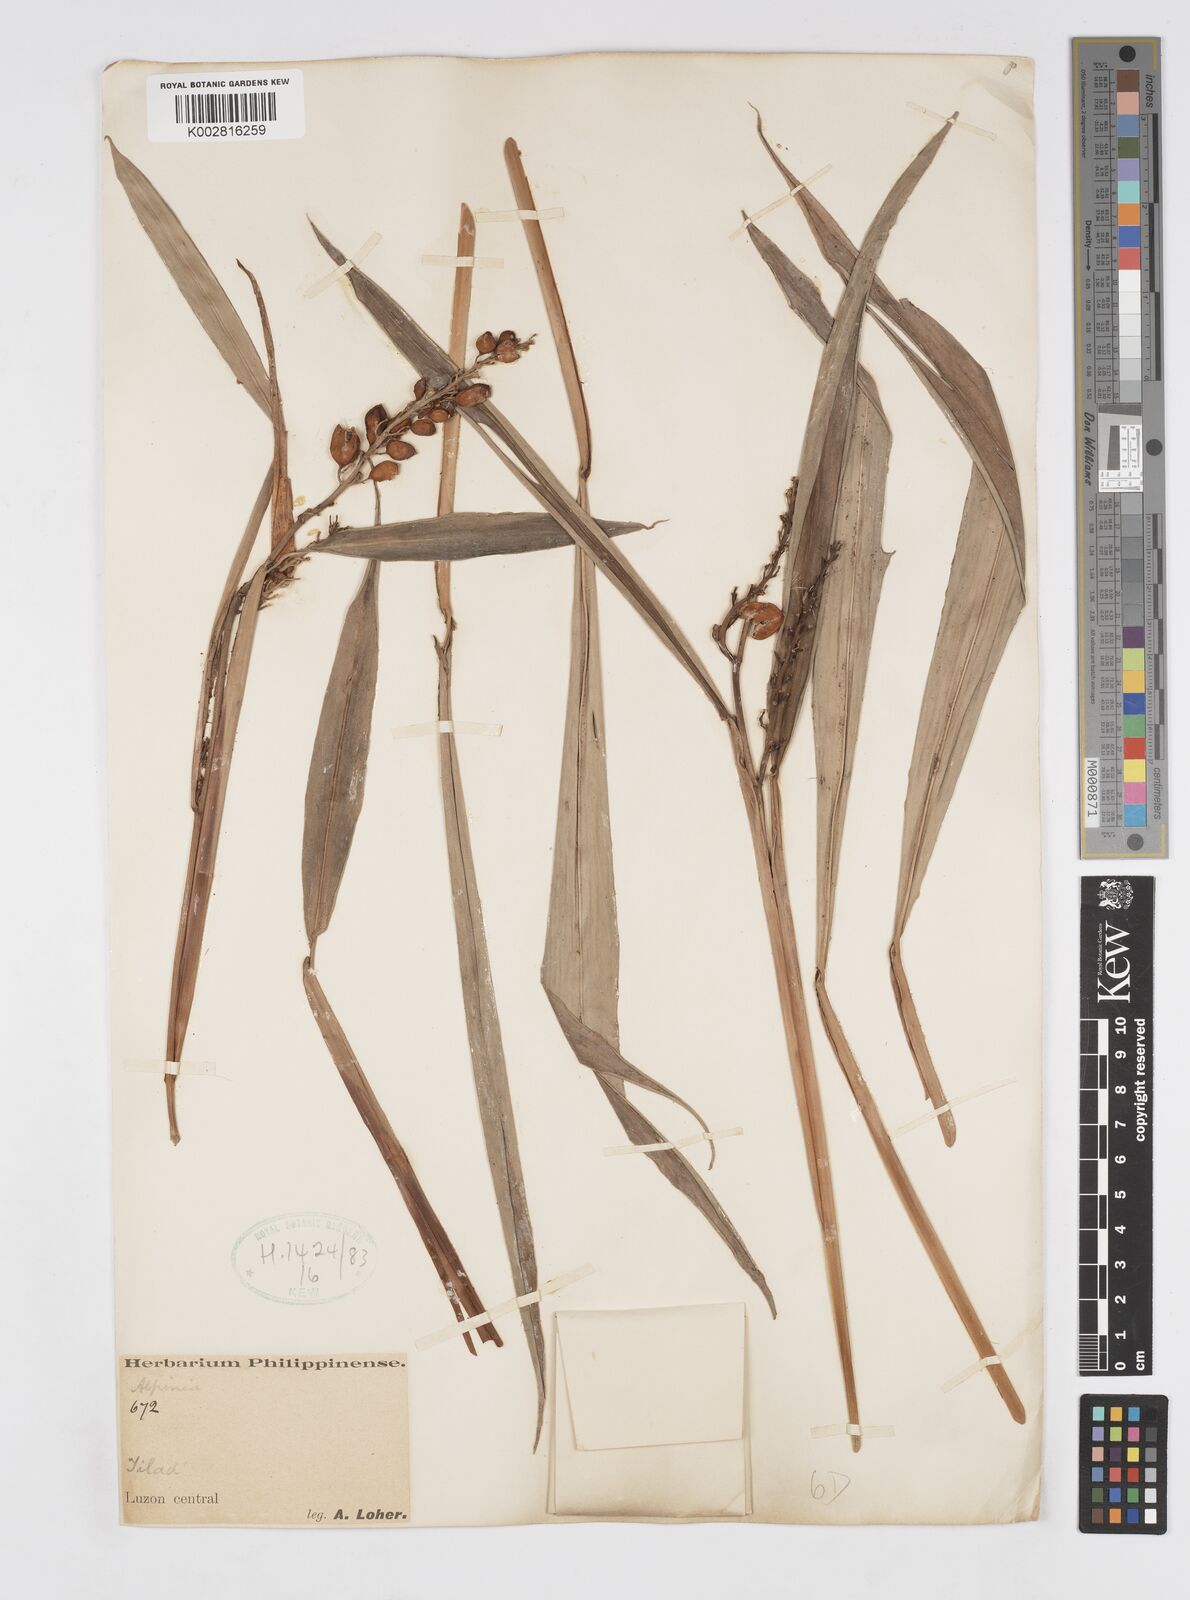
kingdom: Plantae
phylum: Tracheophyta
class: Liliopsida
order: Zingiberales
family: Zingiberaceae
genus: Alpinia
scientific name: Alpinia
